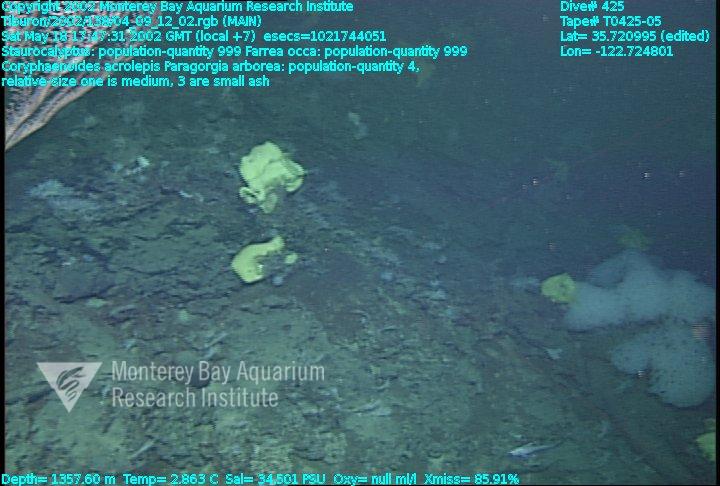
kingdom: Animalia
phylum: Porifera
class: Hexactinellida
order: Sceptrulophora
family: Farreidae
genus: Farrea
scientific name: Farrea occa
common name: Reversed glass sponge
